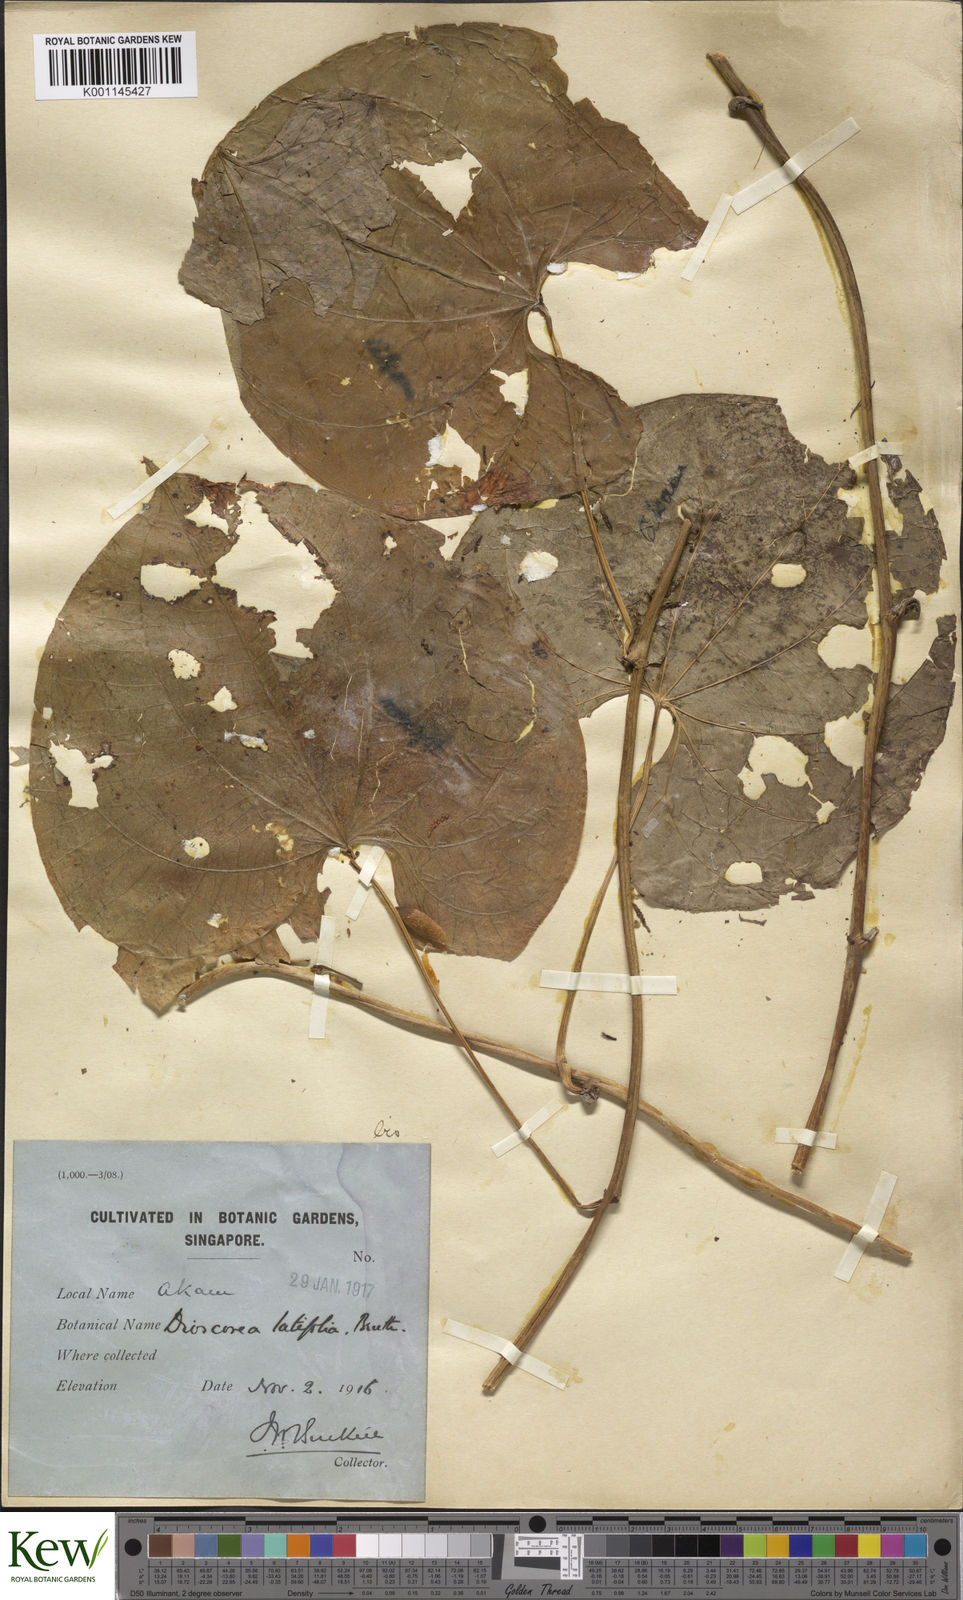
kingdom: Plantae
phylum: Tracheophyta
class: Liliopsida
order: Dioscoreales
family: Dioscoreaceae
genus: Dioscorea
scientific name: Dioscorea bulbifera
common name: Air yam
